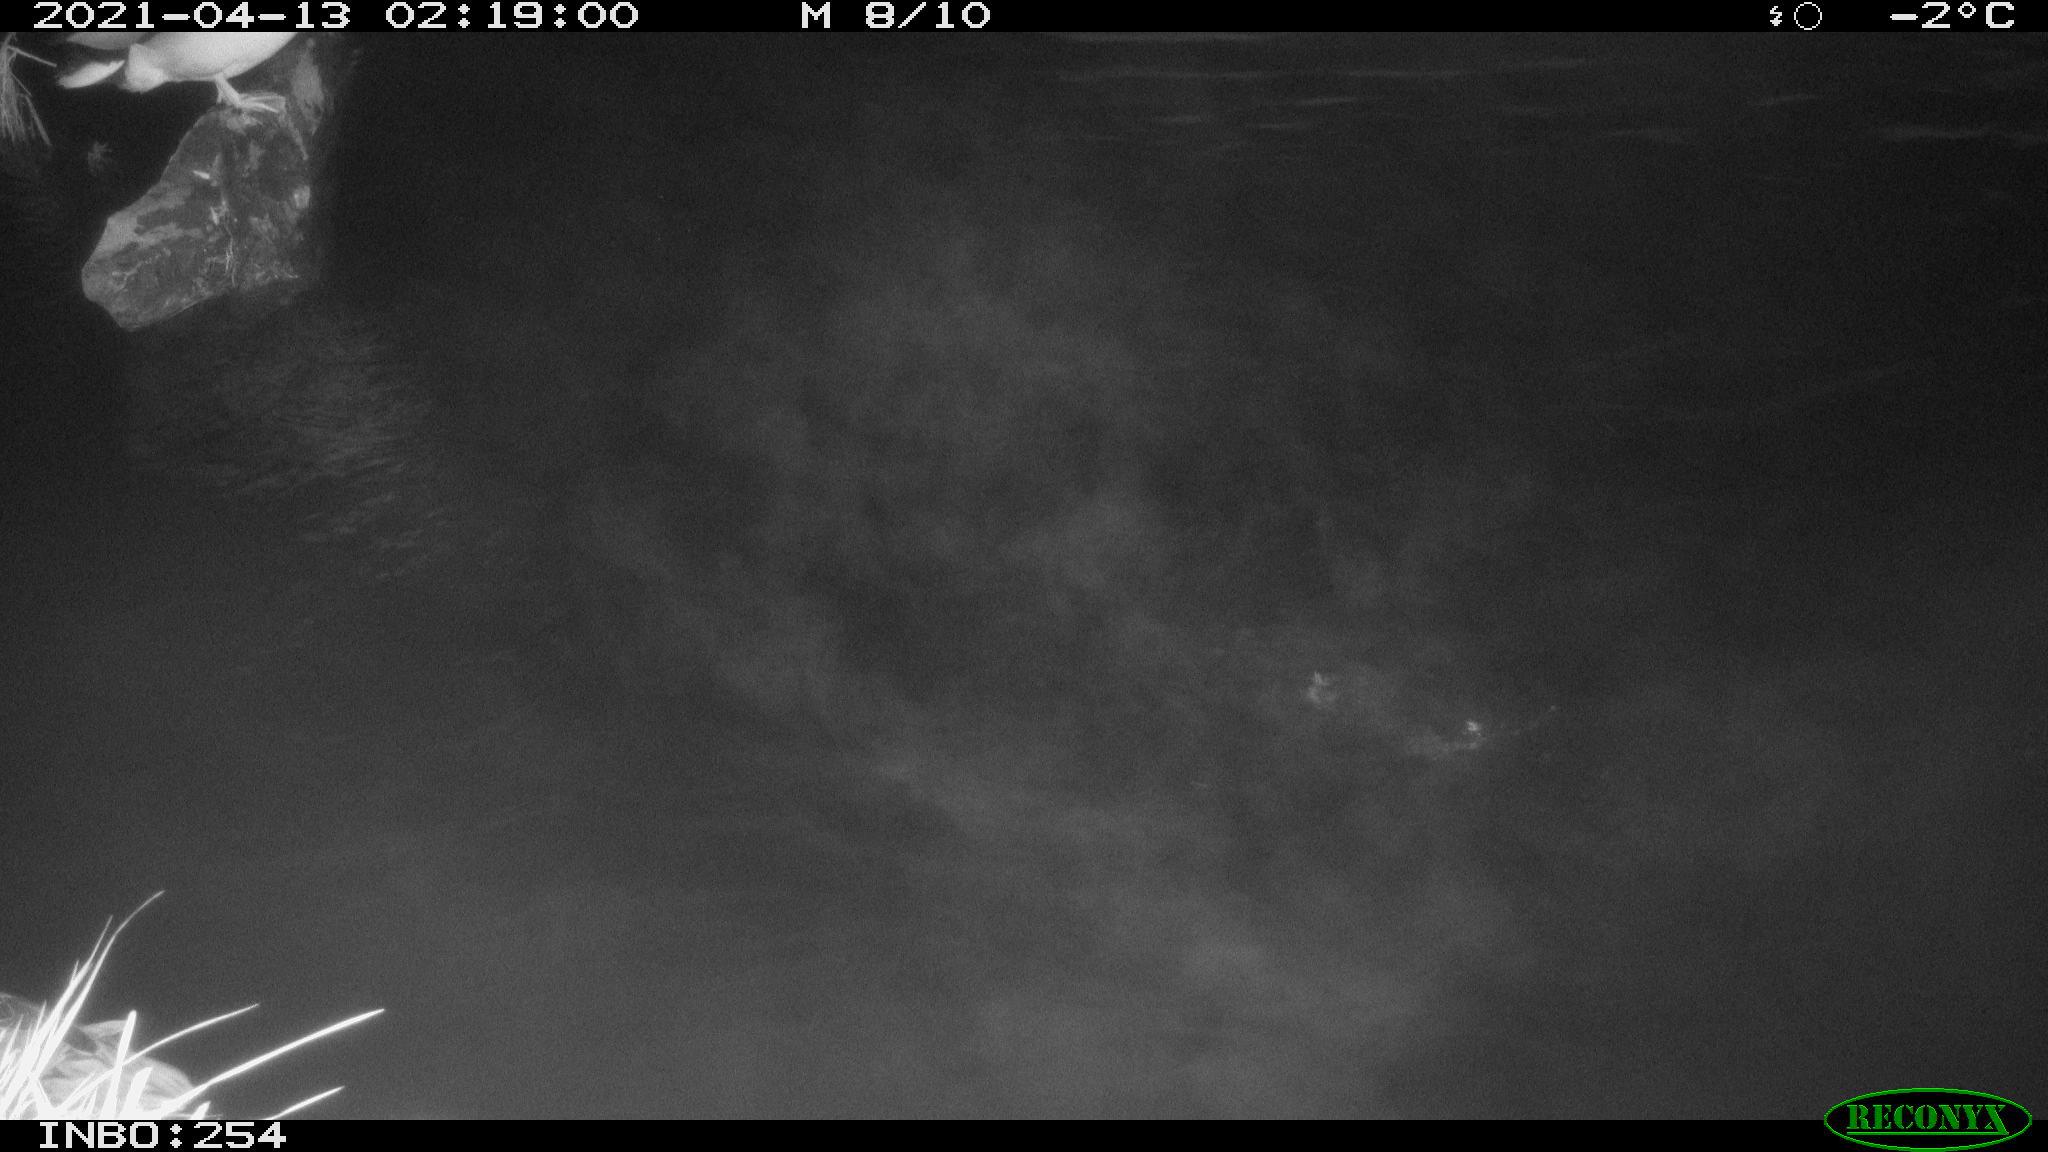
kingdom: Animalia
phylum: Chordata
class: Aves
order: Anseriformes
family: Anatidae
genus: Anas
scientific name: Anas
